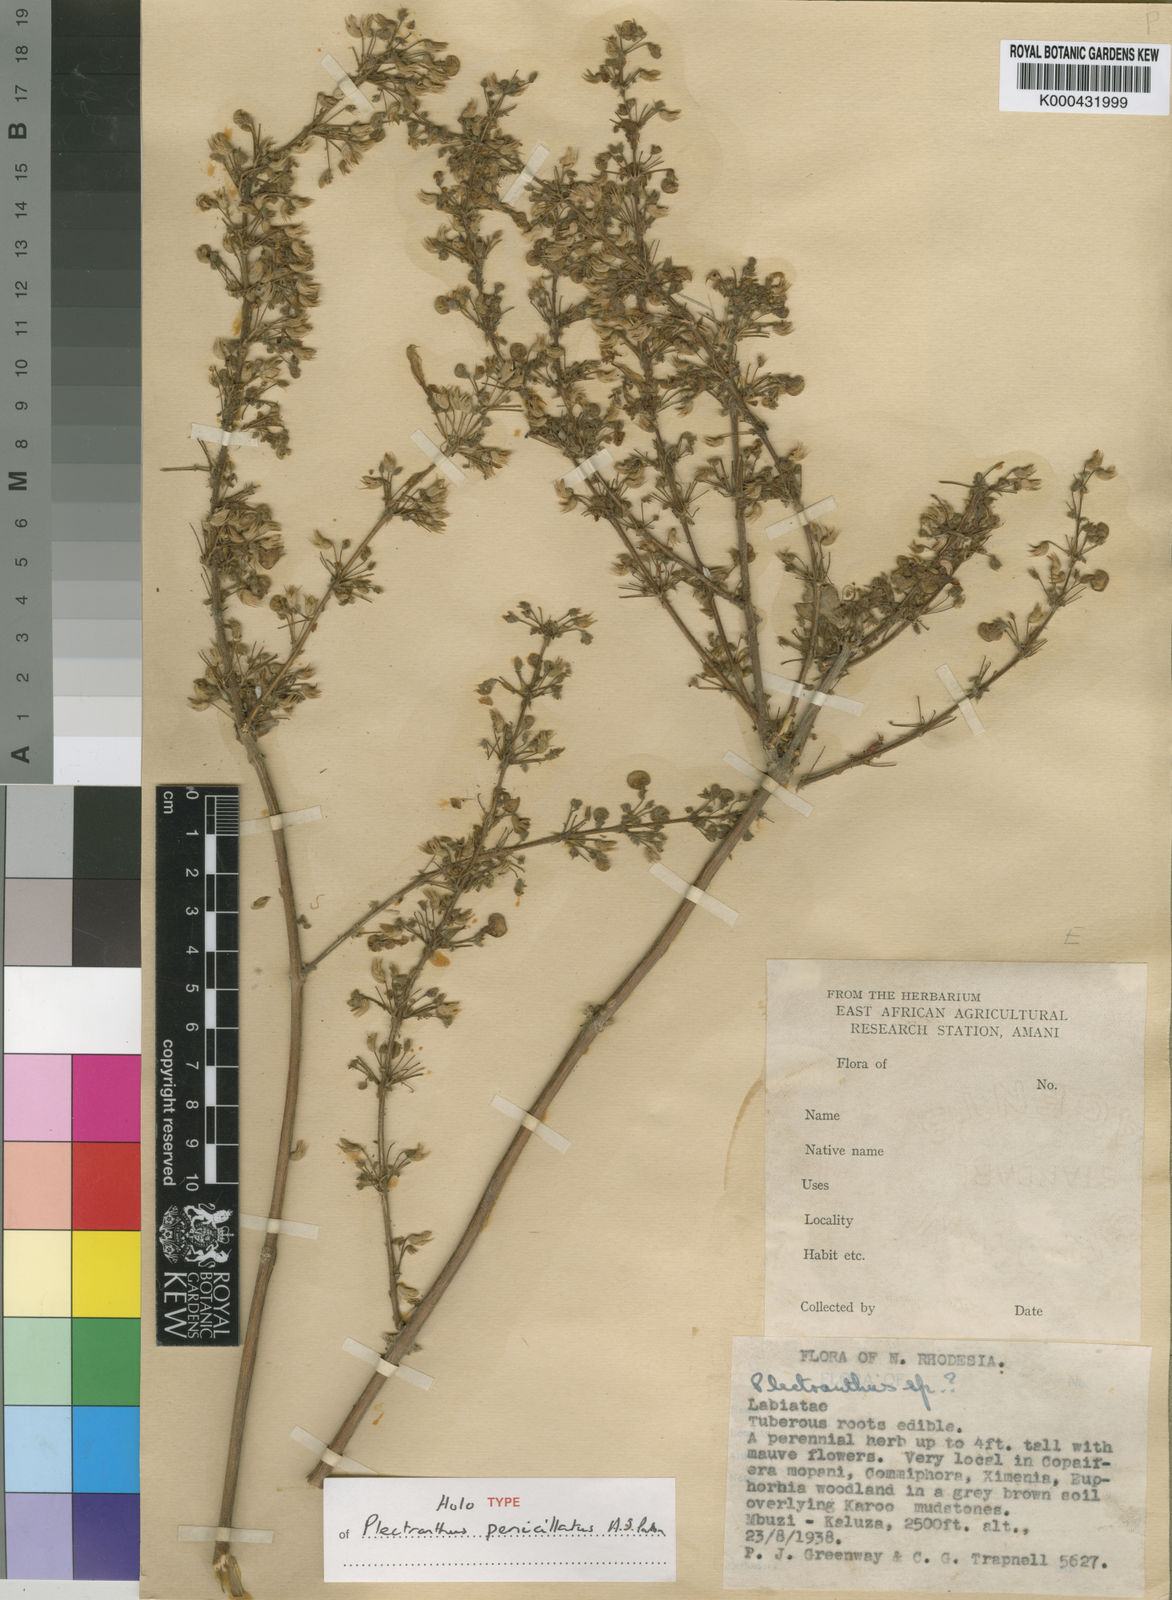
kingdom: Plantae
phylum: Tracheophyta
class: Magnoliopsida
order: Lamiales
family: Lamiaceae
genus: Coleus
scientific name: Coleus penicillatus
